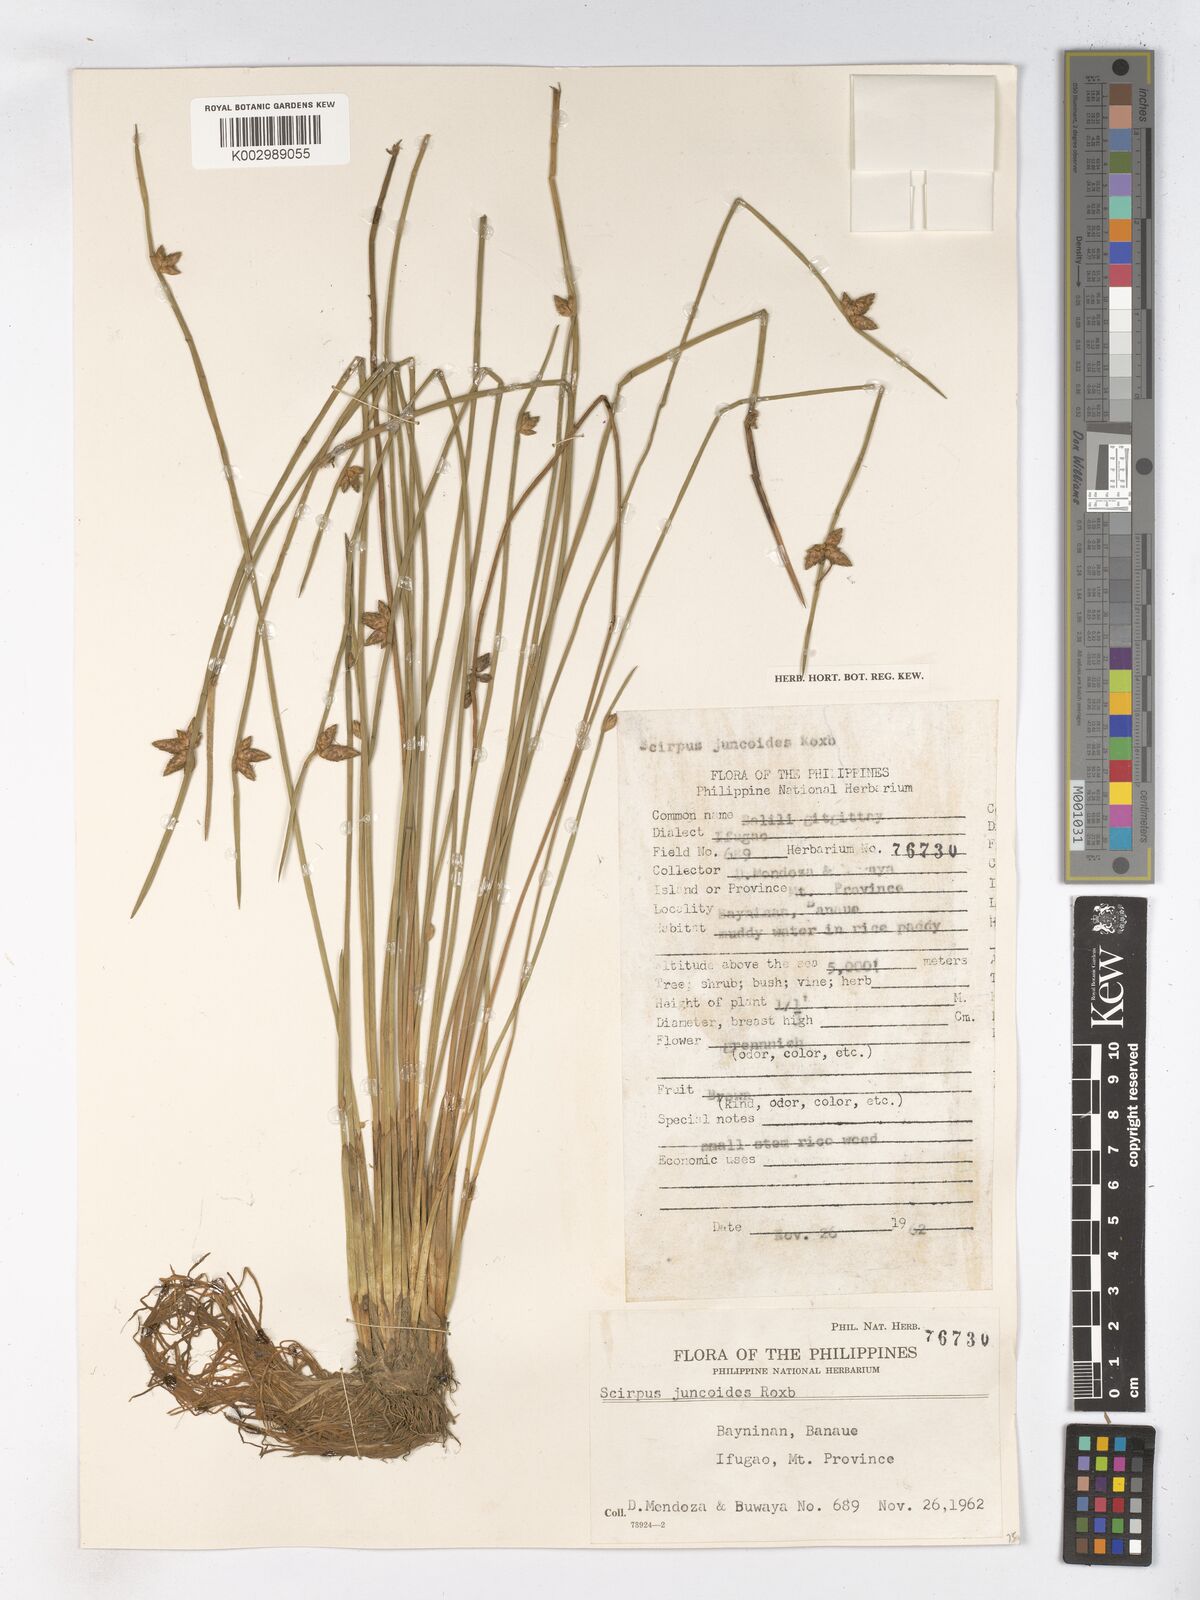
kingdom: Plantae
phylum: Tracheophyta
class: Liliopsida
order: Poales
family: Cyperaceae
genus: Schoenoplectiella
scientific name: Schoenoplectiella juncoides
